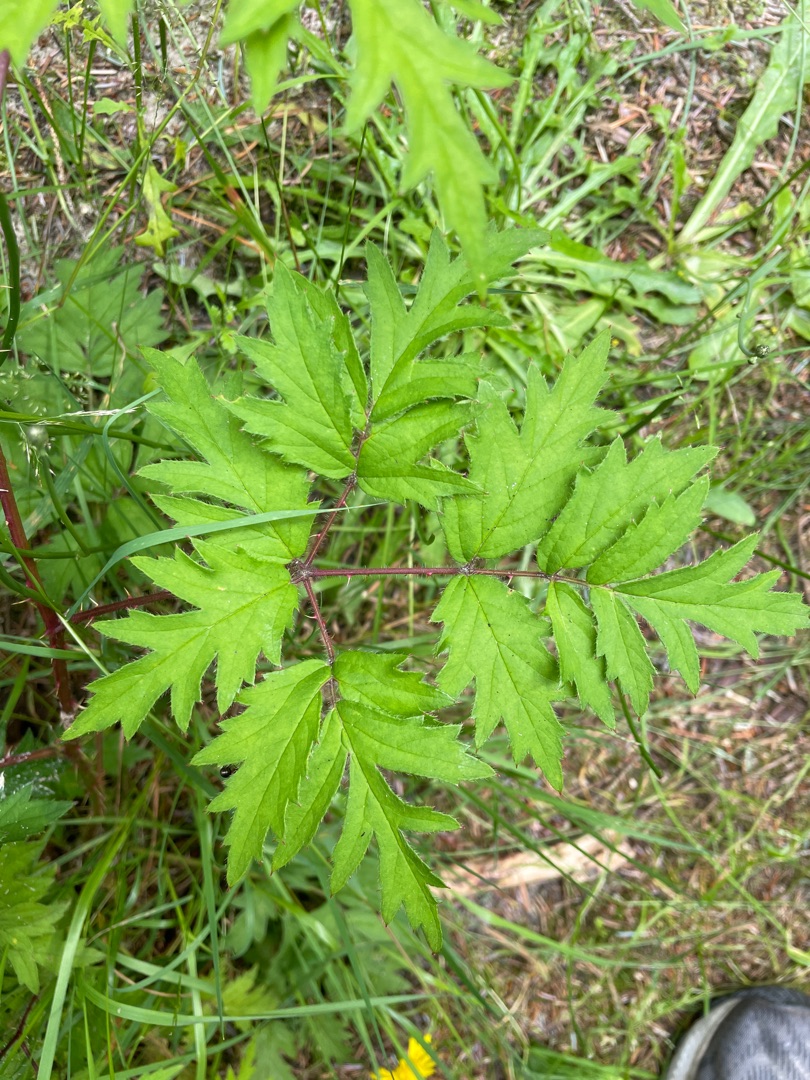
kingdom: Plantae
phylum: Tracheophyta
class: Magnoliopsida
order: Rosales
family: Rosaceae
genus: Rubus
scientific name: Rubus laciniatus
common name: Fliget brombær
